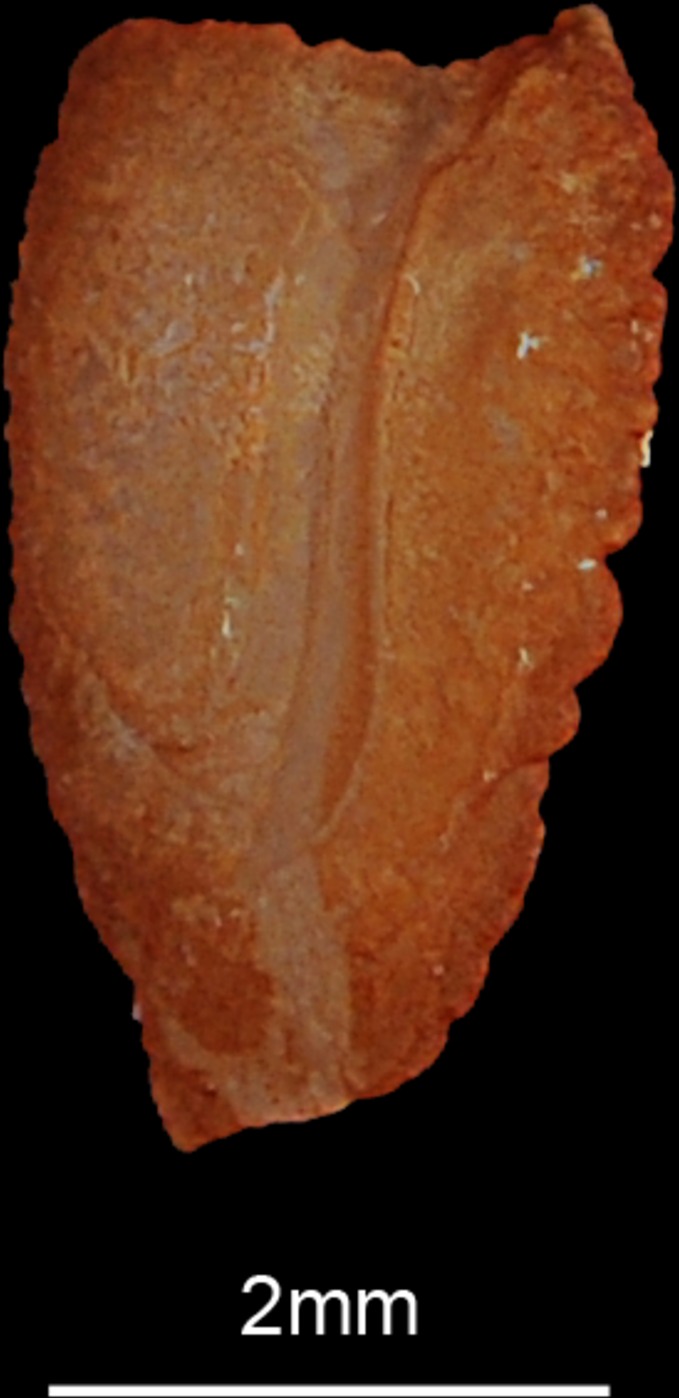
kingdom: Animalia
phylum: Chordata
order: Perciformes
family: Haemulidae
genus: Plectorhinchus
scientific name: Plectorhinchus schotaf
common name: Minstrel sweetlips
